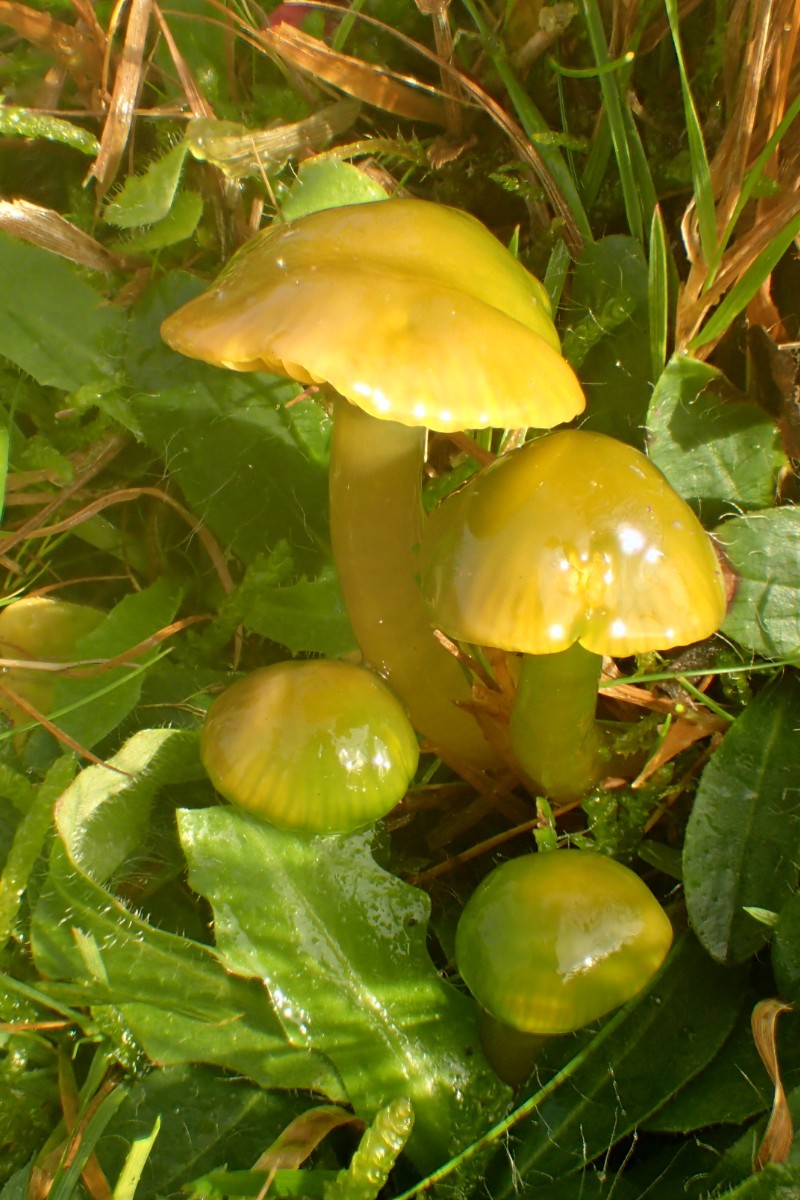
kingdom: Fungi
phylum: Basidiomycota
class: Agaricomycetes
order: Agaricales
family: Hygrophoraceae
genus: Gliophorus
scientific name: Gliophorus psittacinus
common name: papegøje-vokshat
